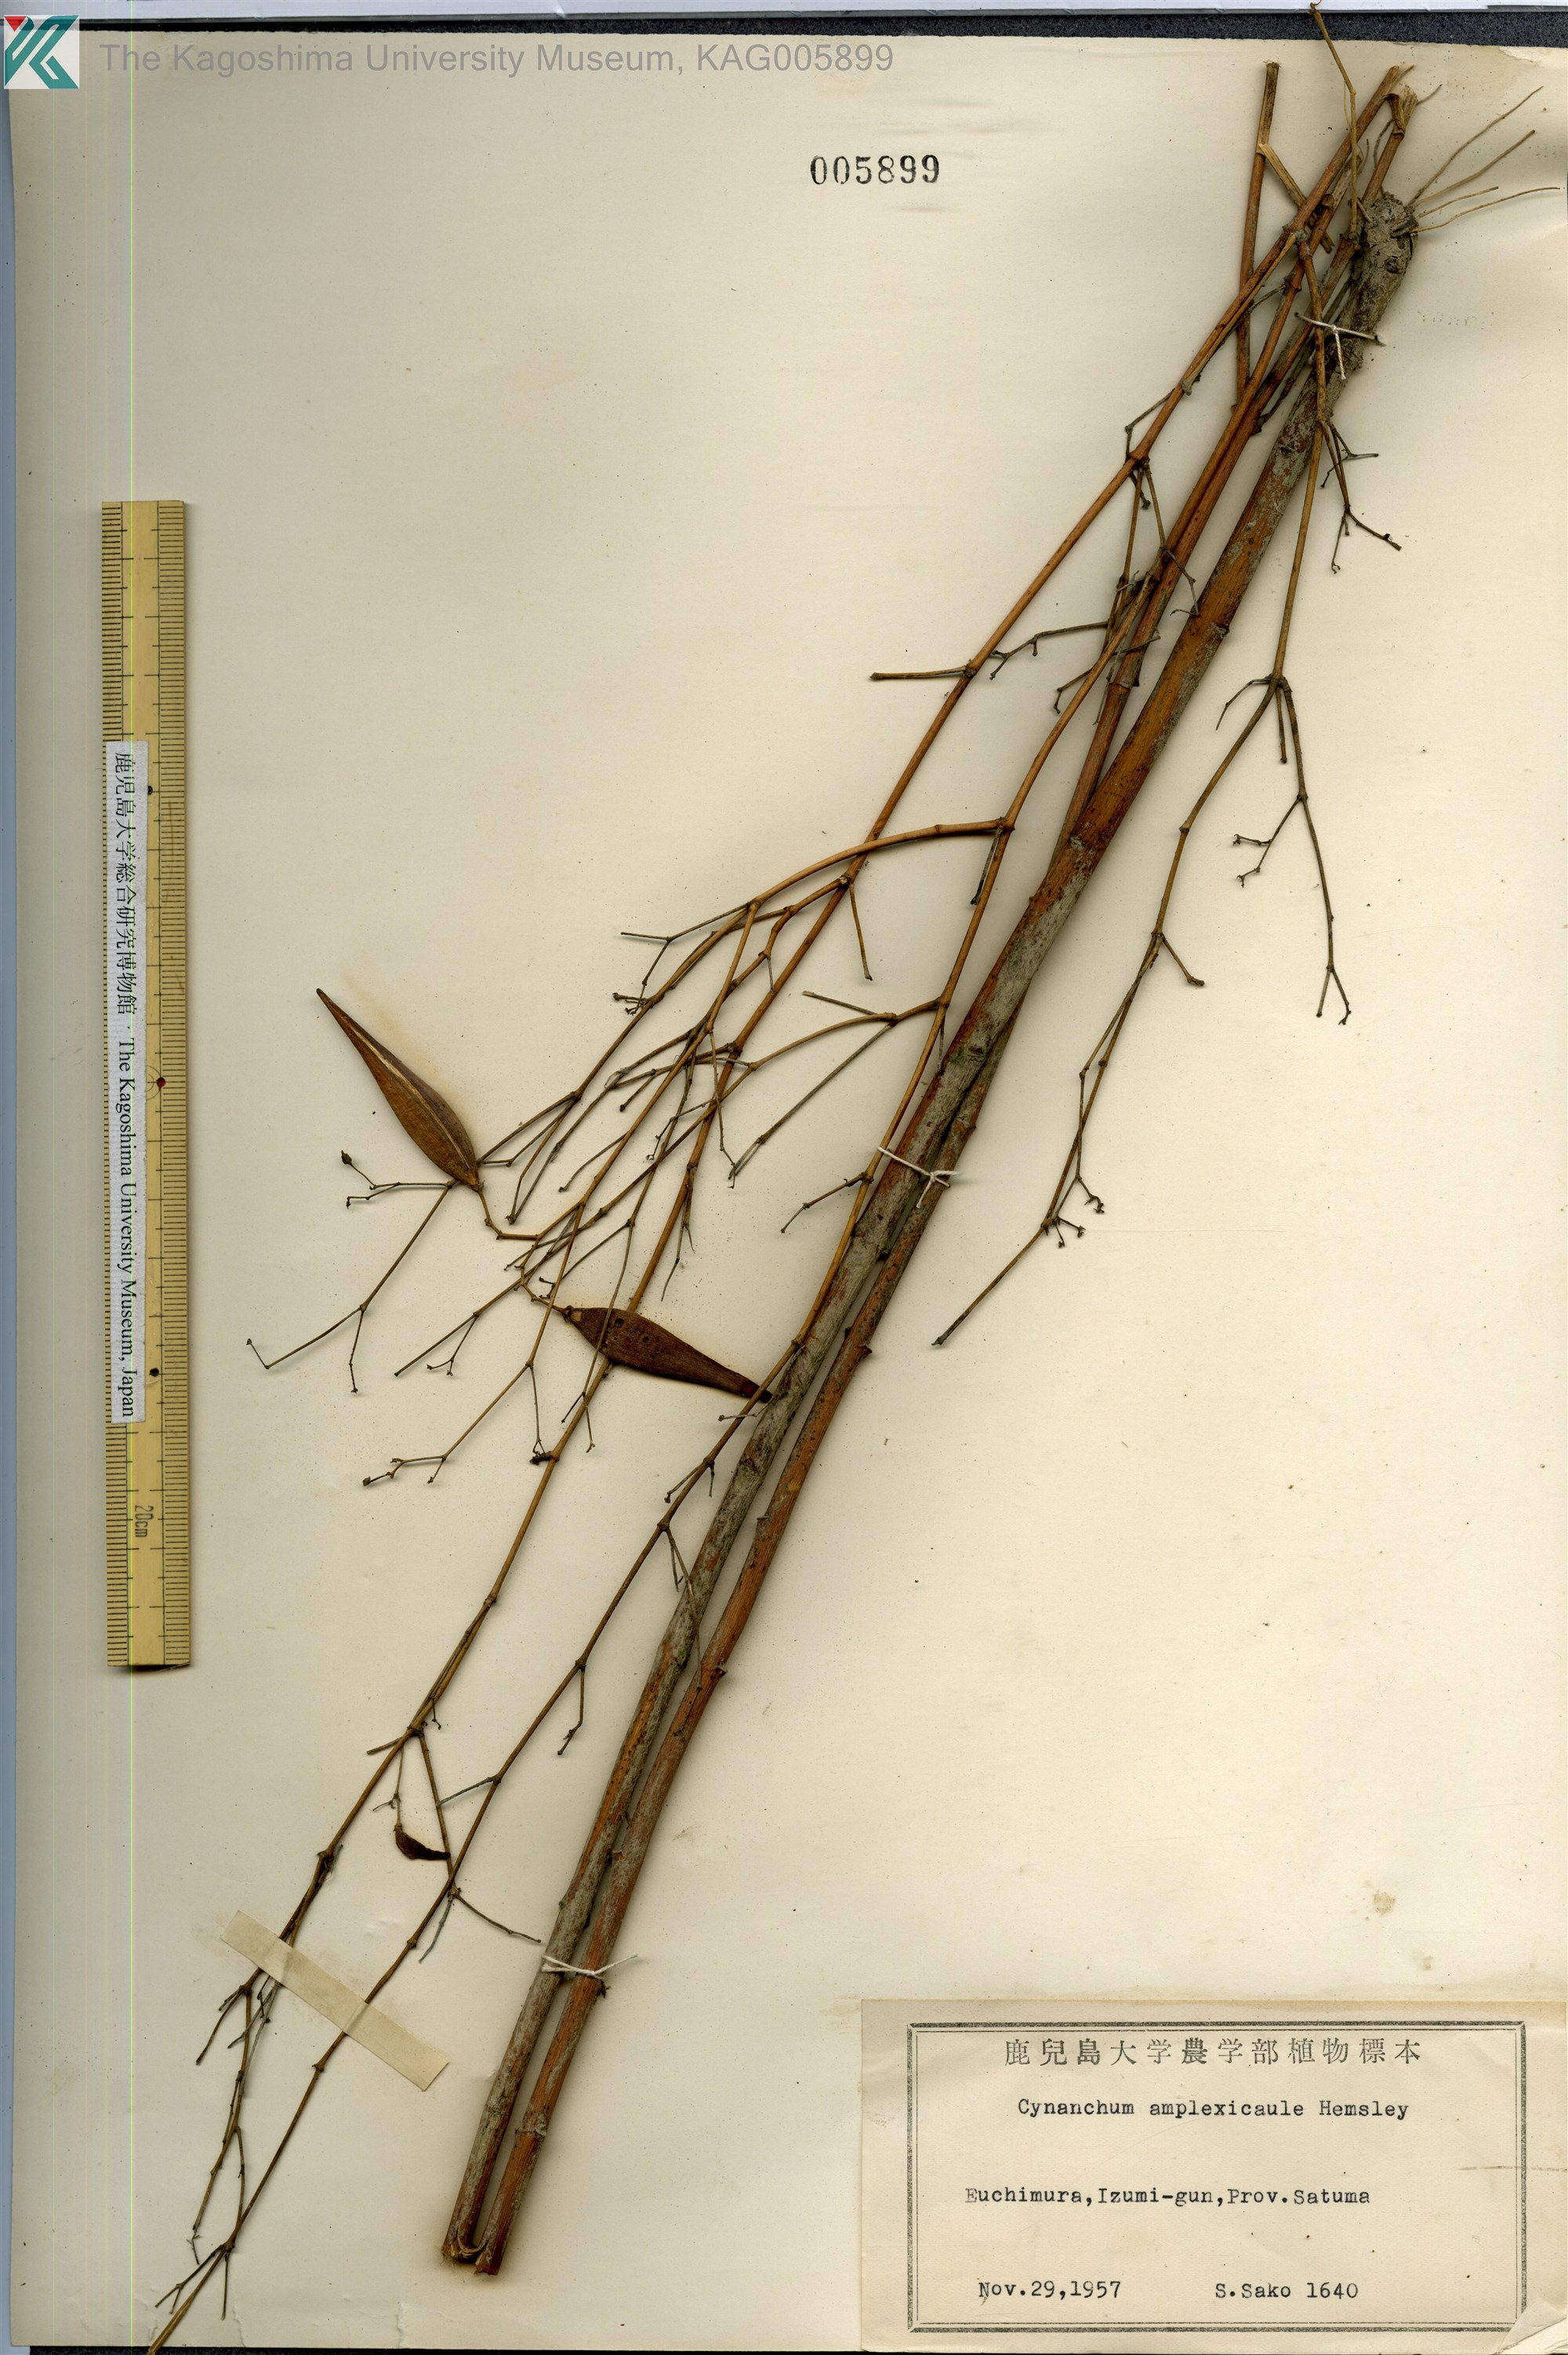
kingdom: Plantae
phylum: Tracheophyta
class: Magnoliopsida
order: Gentianales
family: Apocynaceae
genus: Vincetoxicum
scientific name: Vincetoxicum amplexicaule
